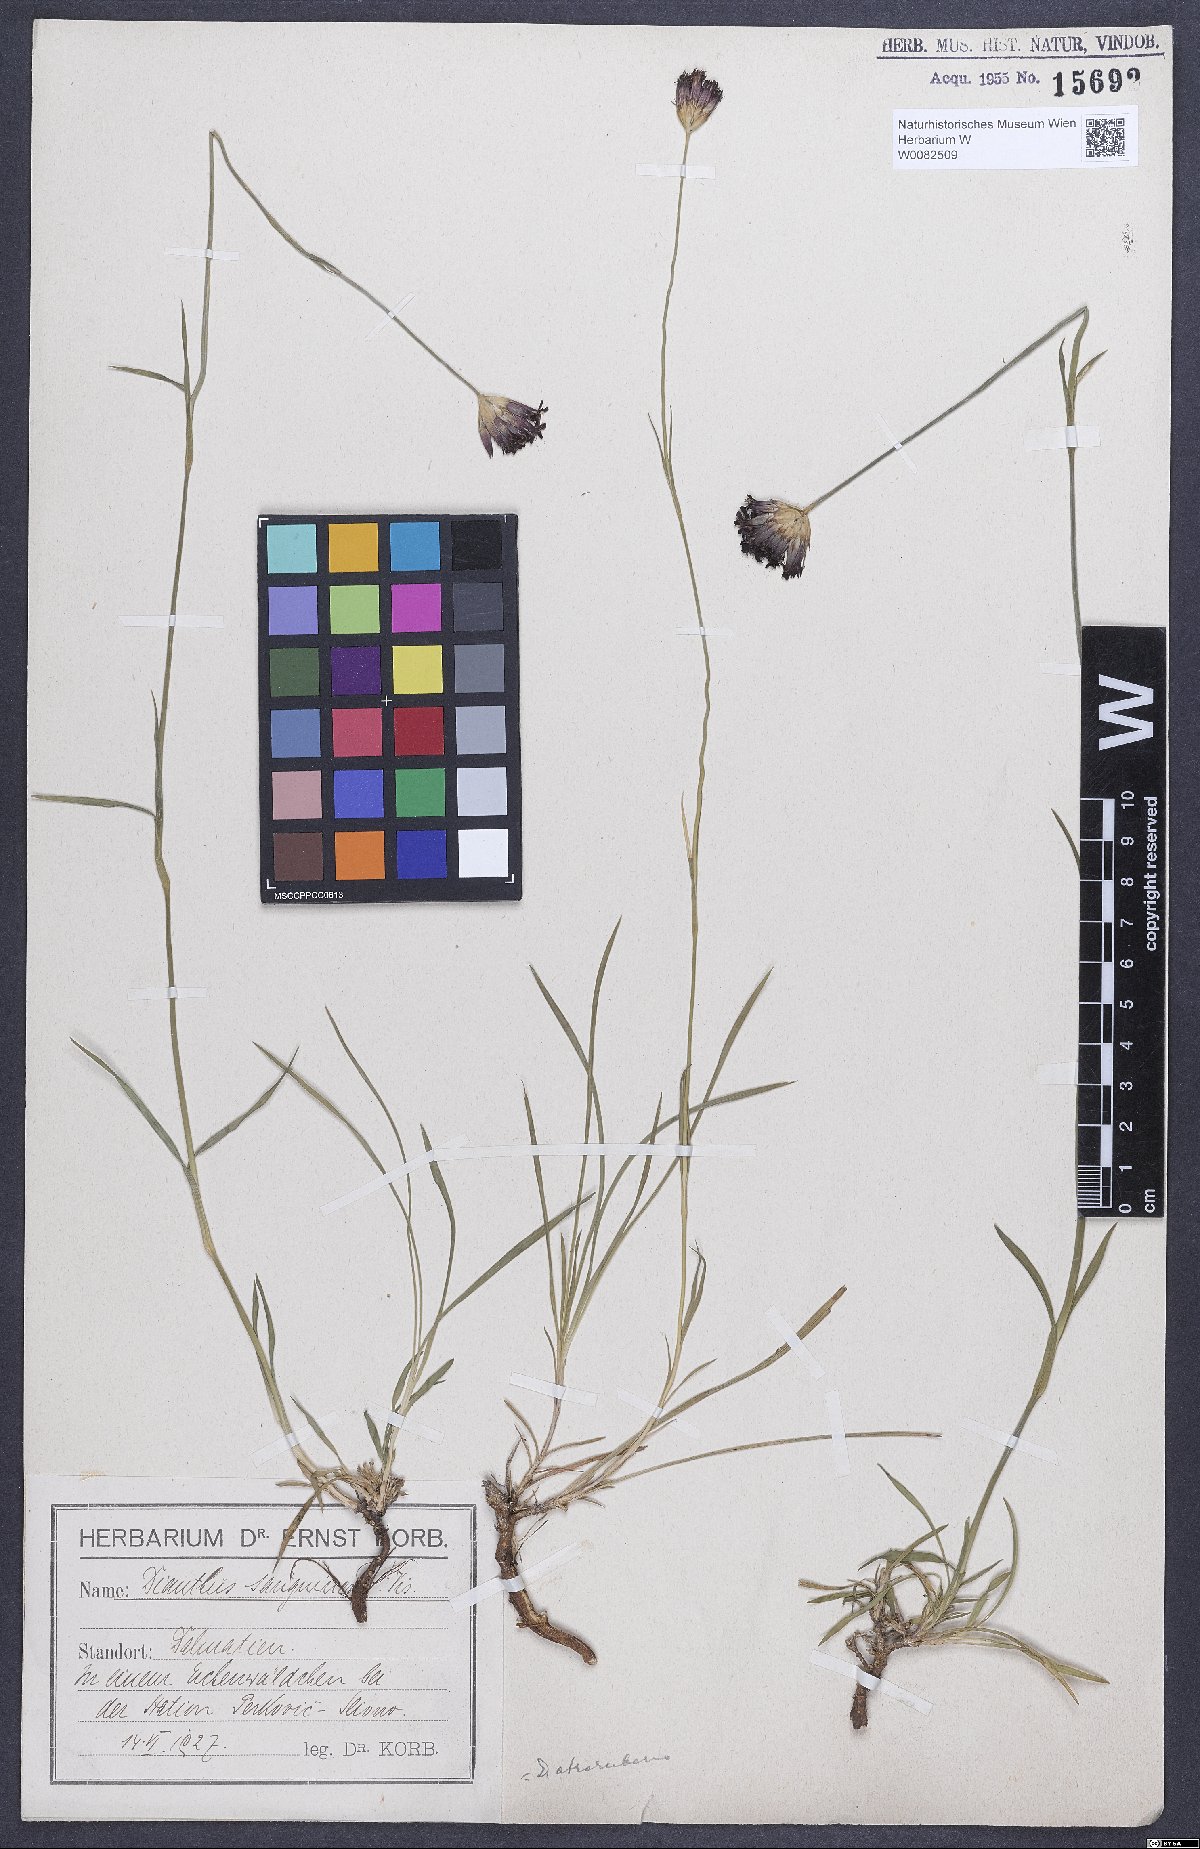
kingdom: Plantae
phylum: Tracheophyta
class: Magnoliopsida
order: Caryophyllales
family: Caryophyllaceae
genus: Dianthus
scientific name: Dianthus carthusianorum
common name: Carthusian pink
